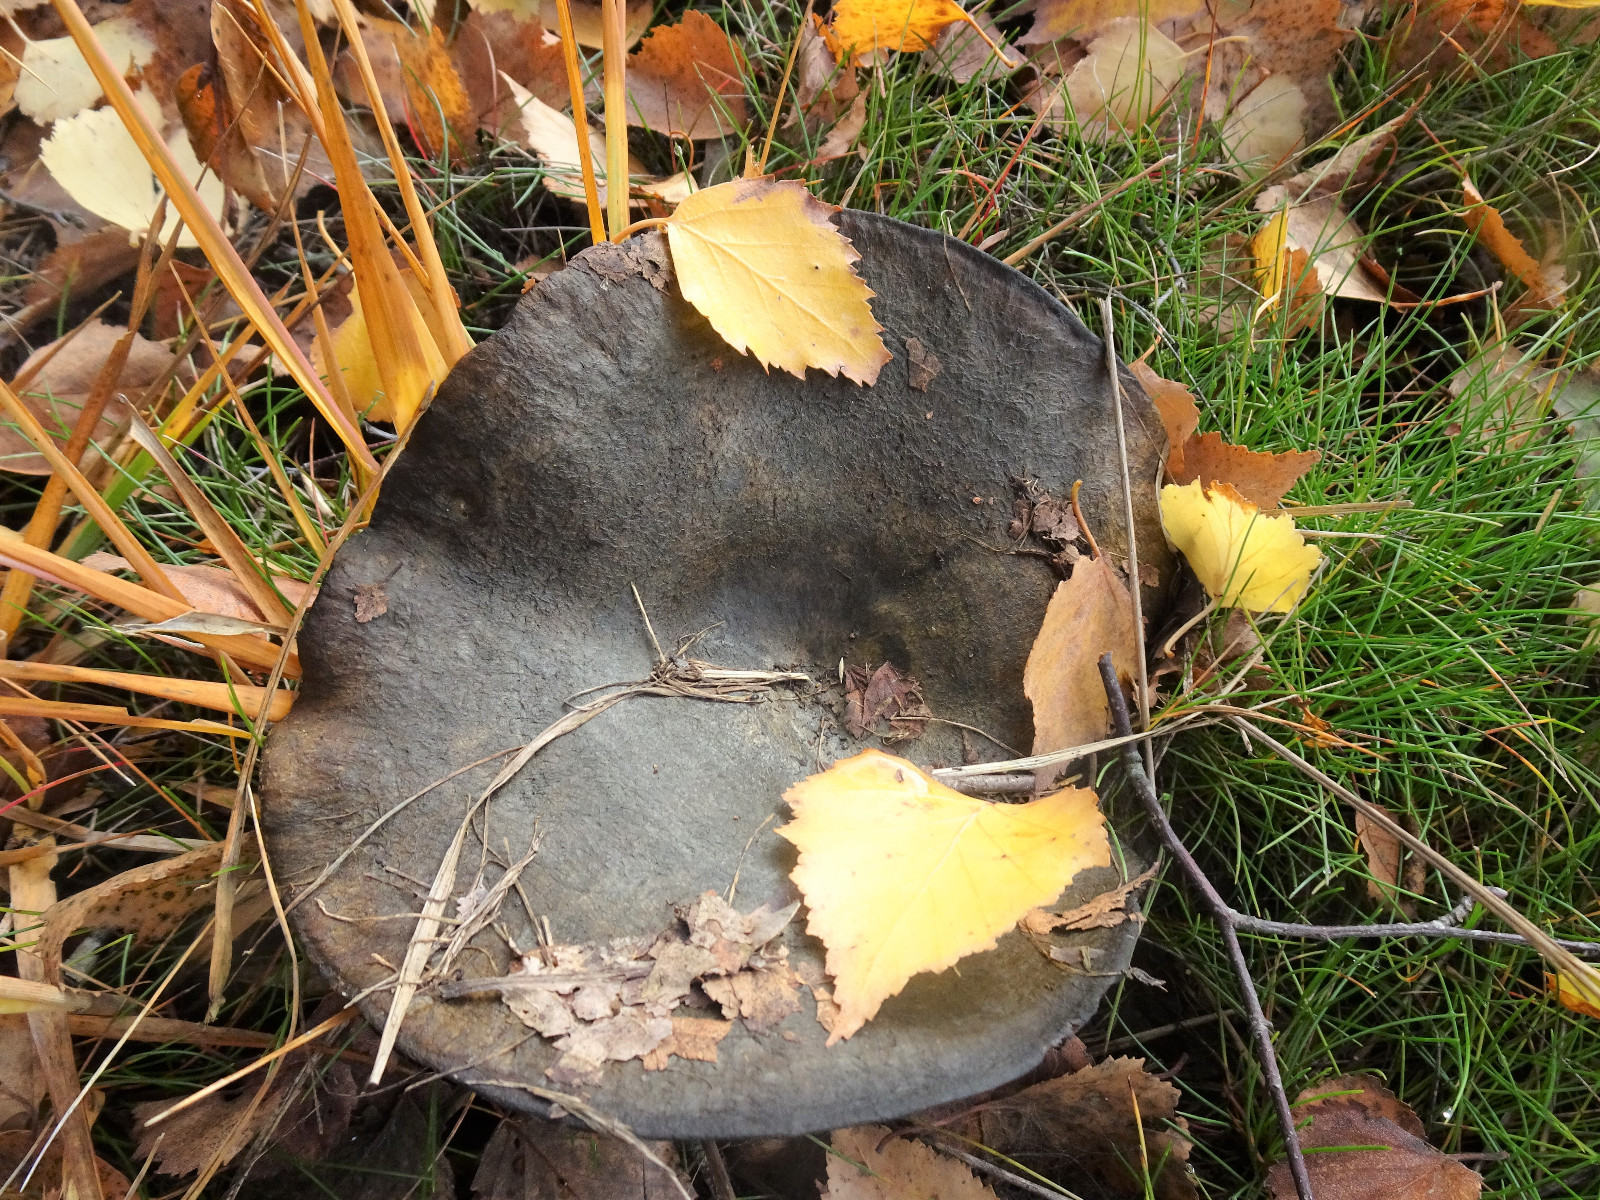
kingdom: Fungi
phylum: Basidiomycota
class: Agaricomycetes
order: Russulales
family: Russulaceae
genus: Lactarius
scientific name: Lactarius necator
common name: manddraber-mælkehat
